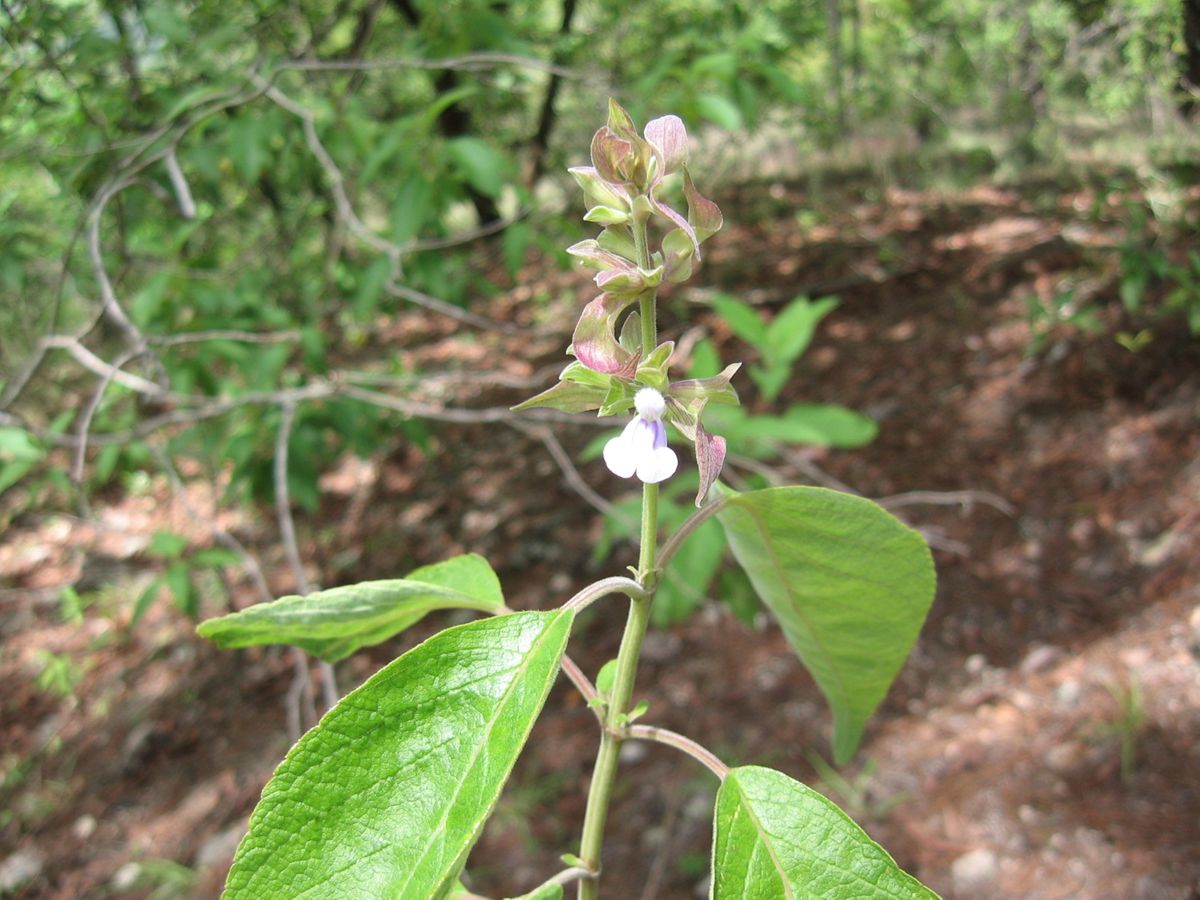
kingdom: Plantae
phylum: Tracheophyta
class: Magnoliopsida
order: Lamiales
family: Lamiaceae
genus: Salvia
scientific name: Salvia shannonii
